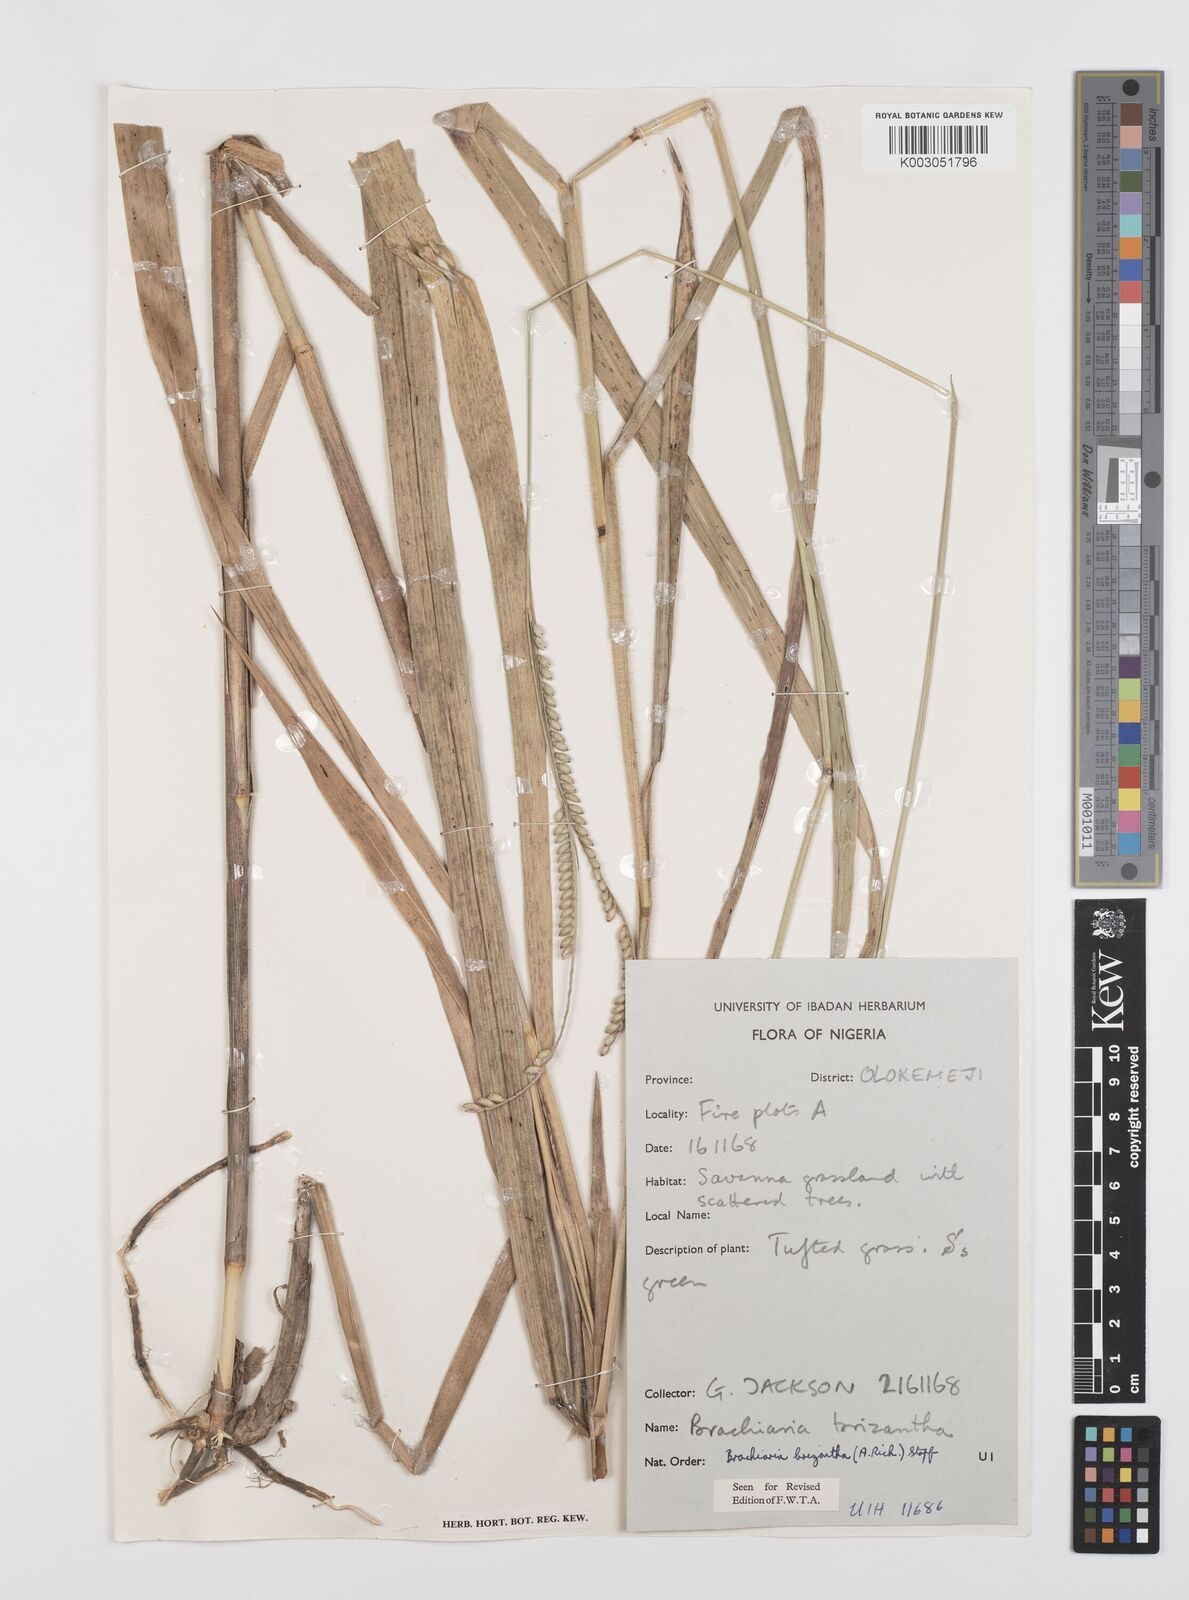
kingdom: Plantae
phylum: Tracheophyta
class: Liliopsida
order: Poales
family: Poaceae
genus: Urochloa
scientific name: Urochloa brizantha
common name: Palisade signalgrass
